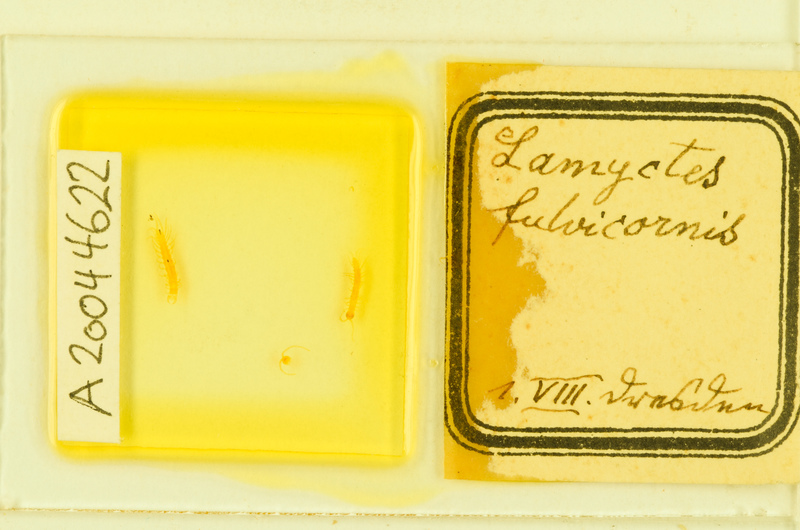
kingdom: Animalia
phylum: Arthropoda
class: Chilopoda
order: Lithobiomorpha
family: Henicopidae
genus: Lamyctes
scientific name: Lamyctes emarginatus
